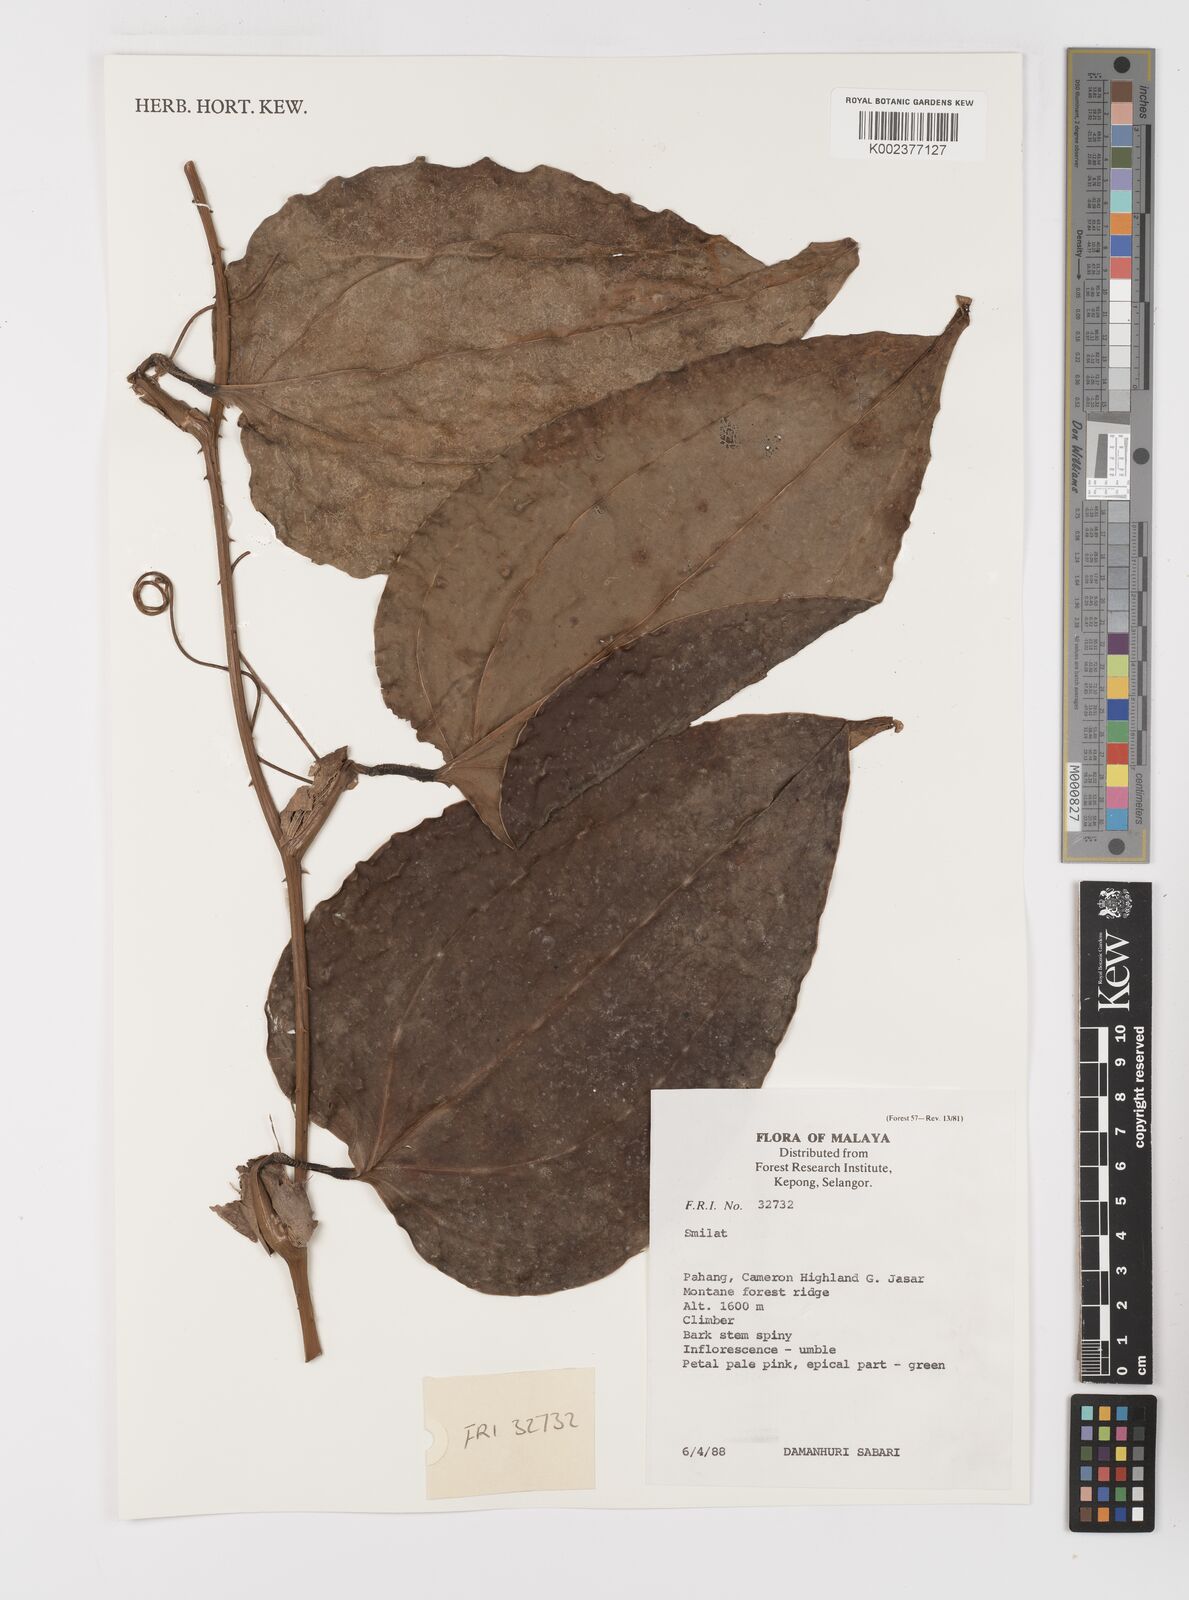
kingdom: Plantae
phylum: Tracheophyta
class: Liliopsida
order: Liliales
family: Smilacaceae
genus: Smilax
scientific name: Smilax
